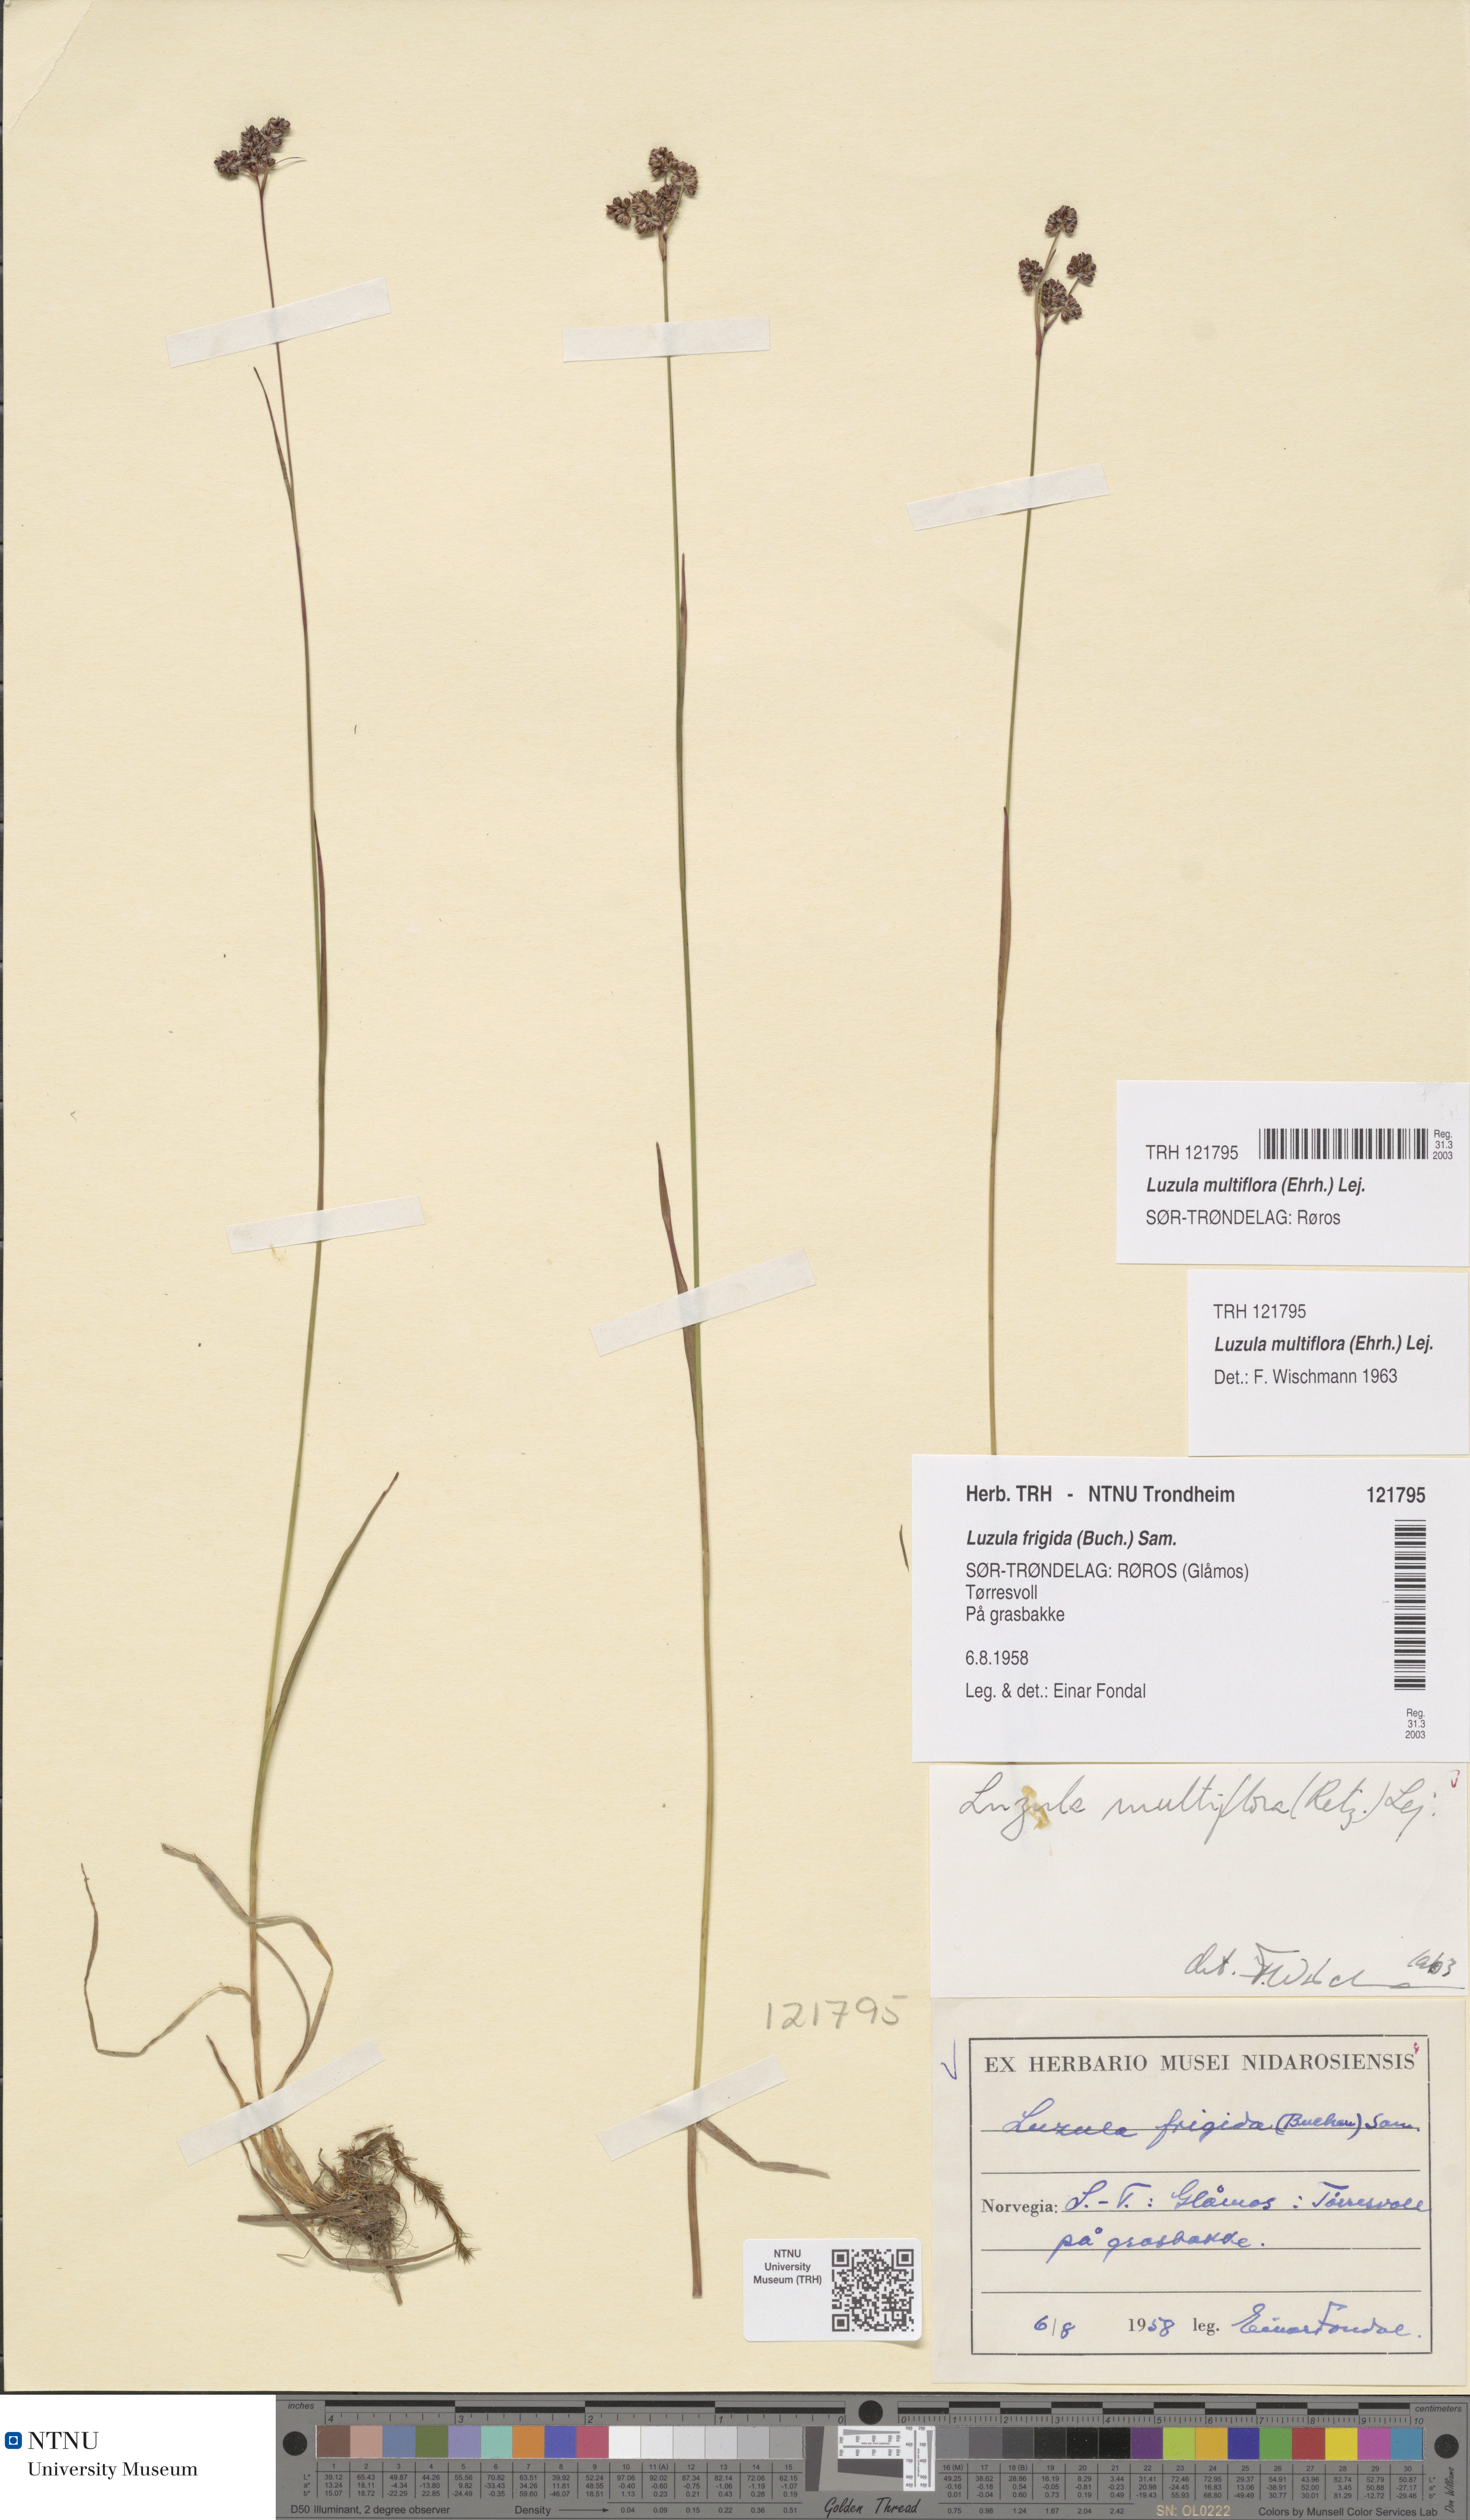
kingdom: Plantae
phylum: Tracheophyta
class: Liliopsida
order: Poales
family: Juncaceae
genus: Luzula
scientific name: Luzula multiflora
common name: Heath wood-rush
